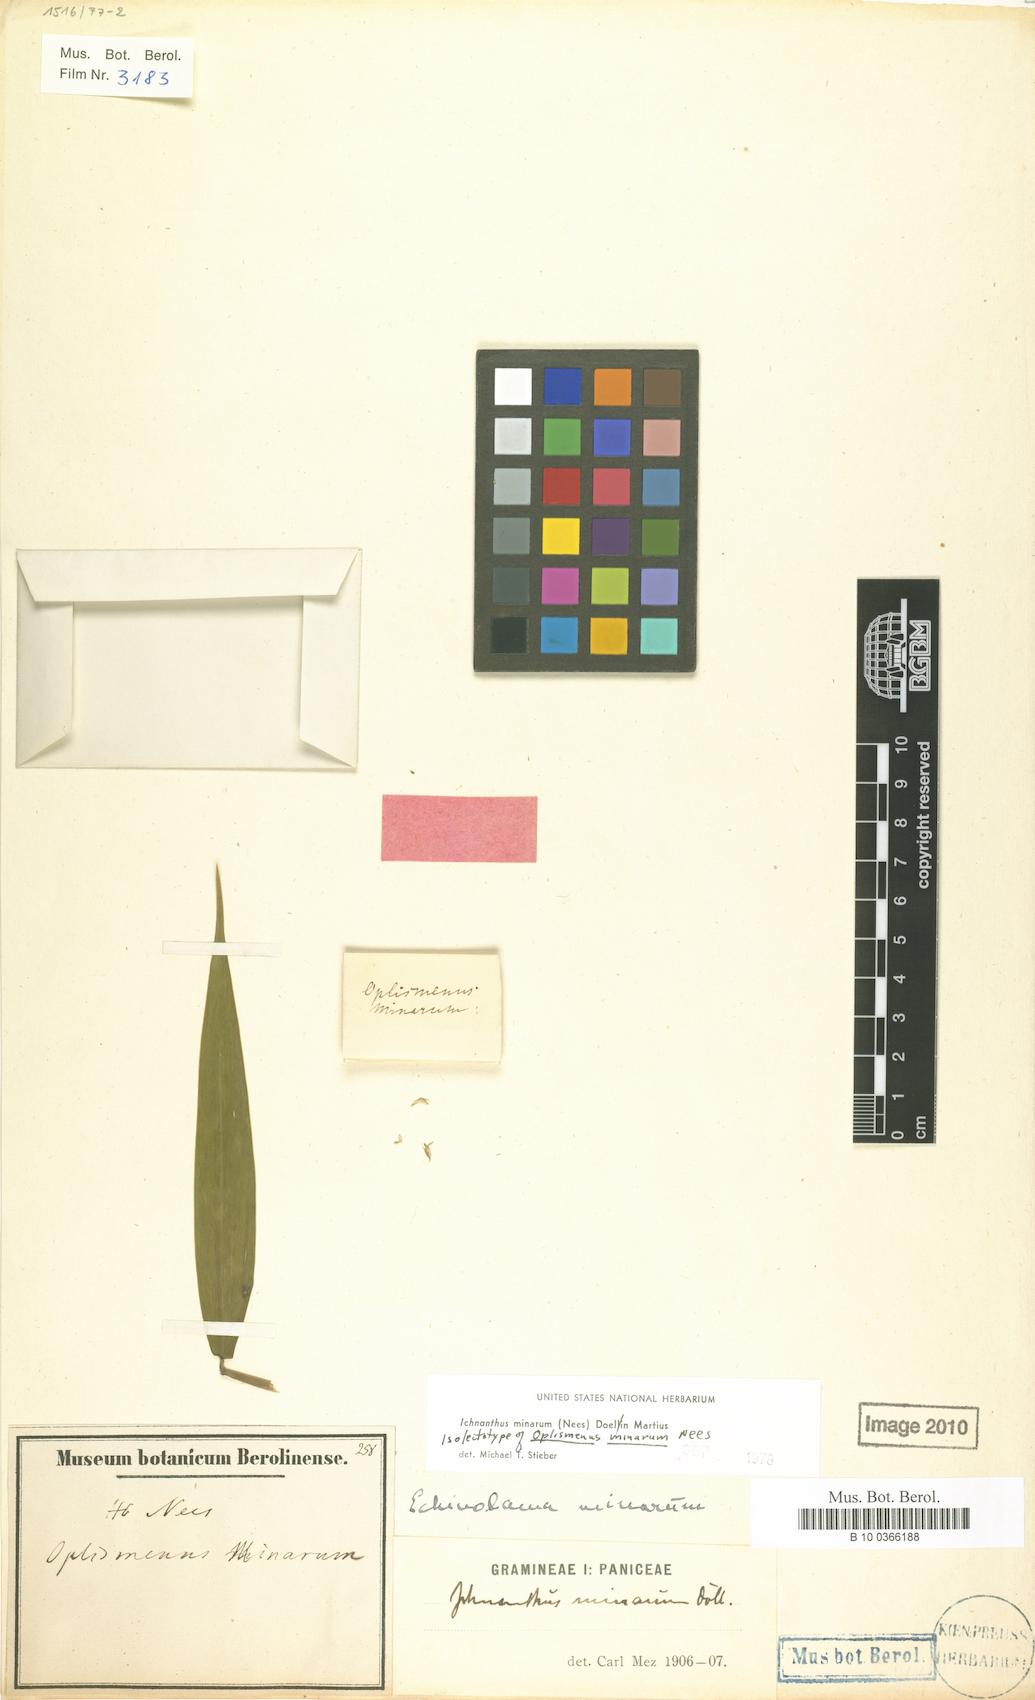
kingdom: Plantae
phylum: Tracheophyta
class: Liliopsida
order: Poales
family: Poaceae
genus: Oedochloa
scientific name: Oedochloa minarum
